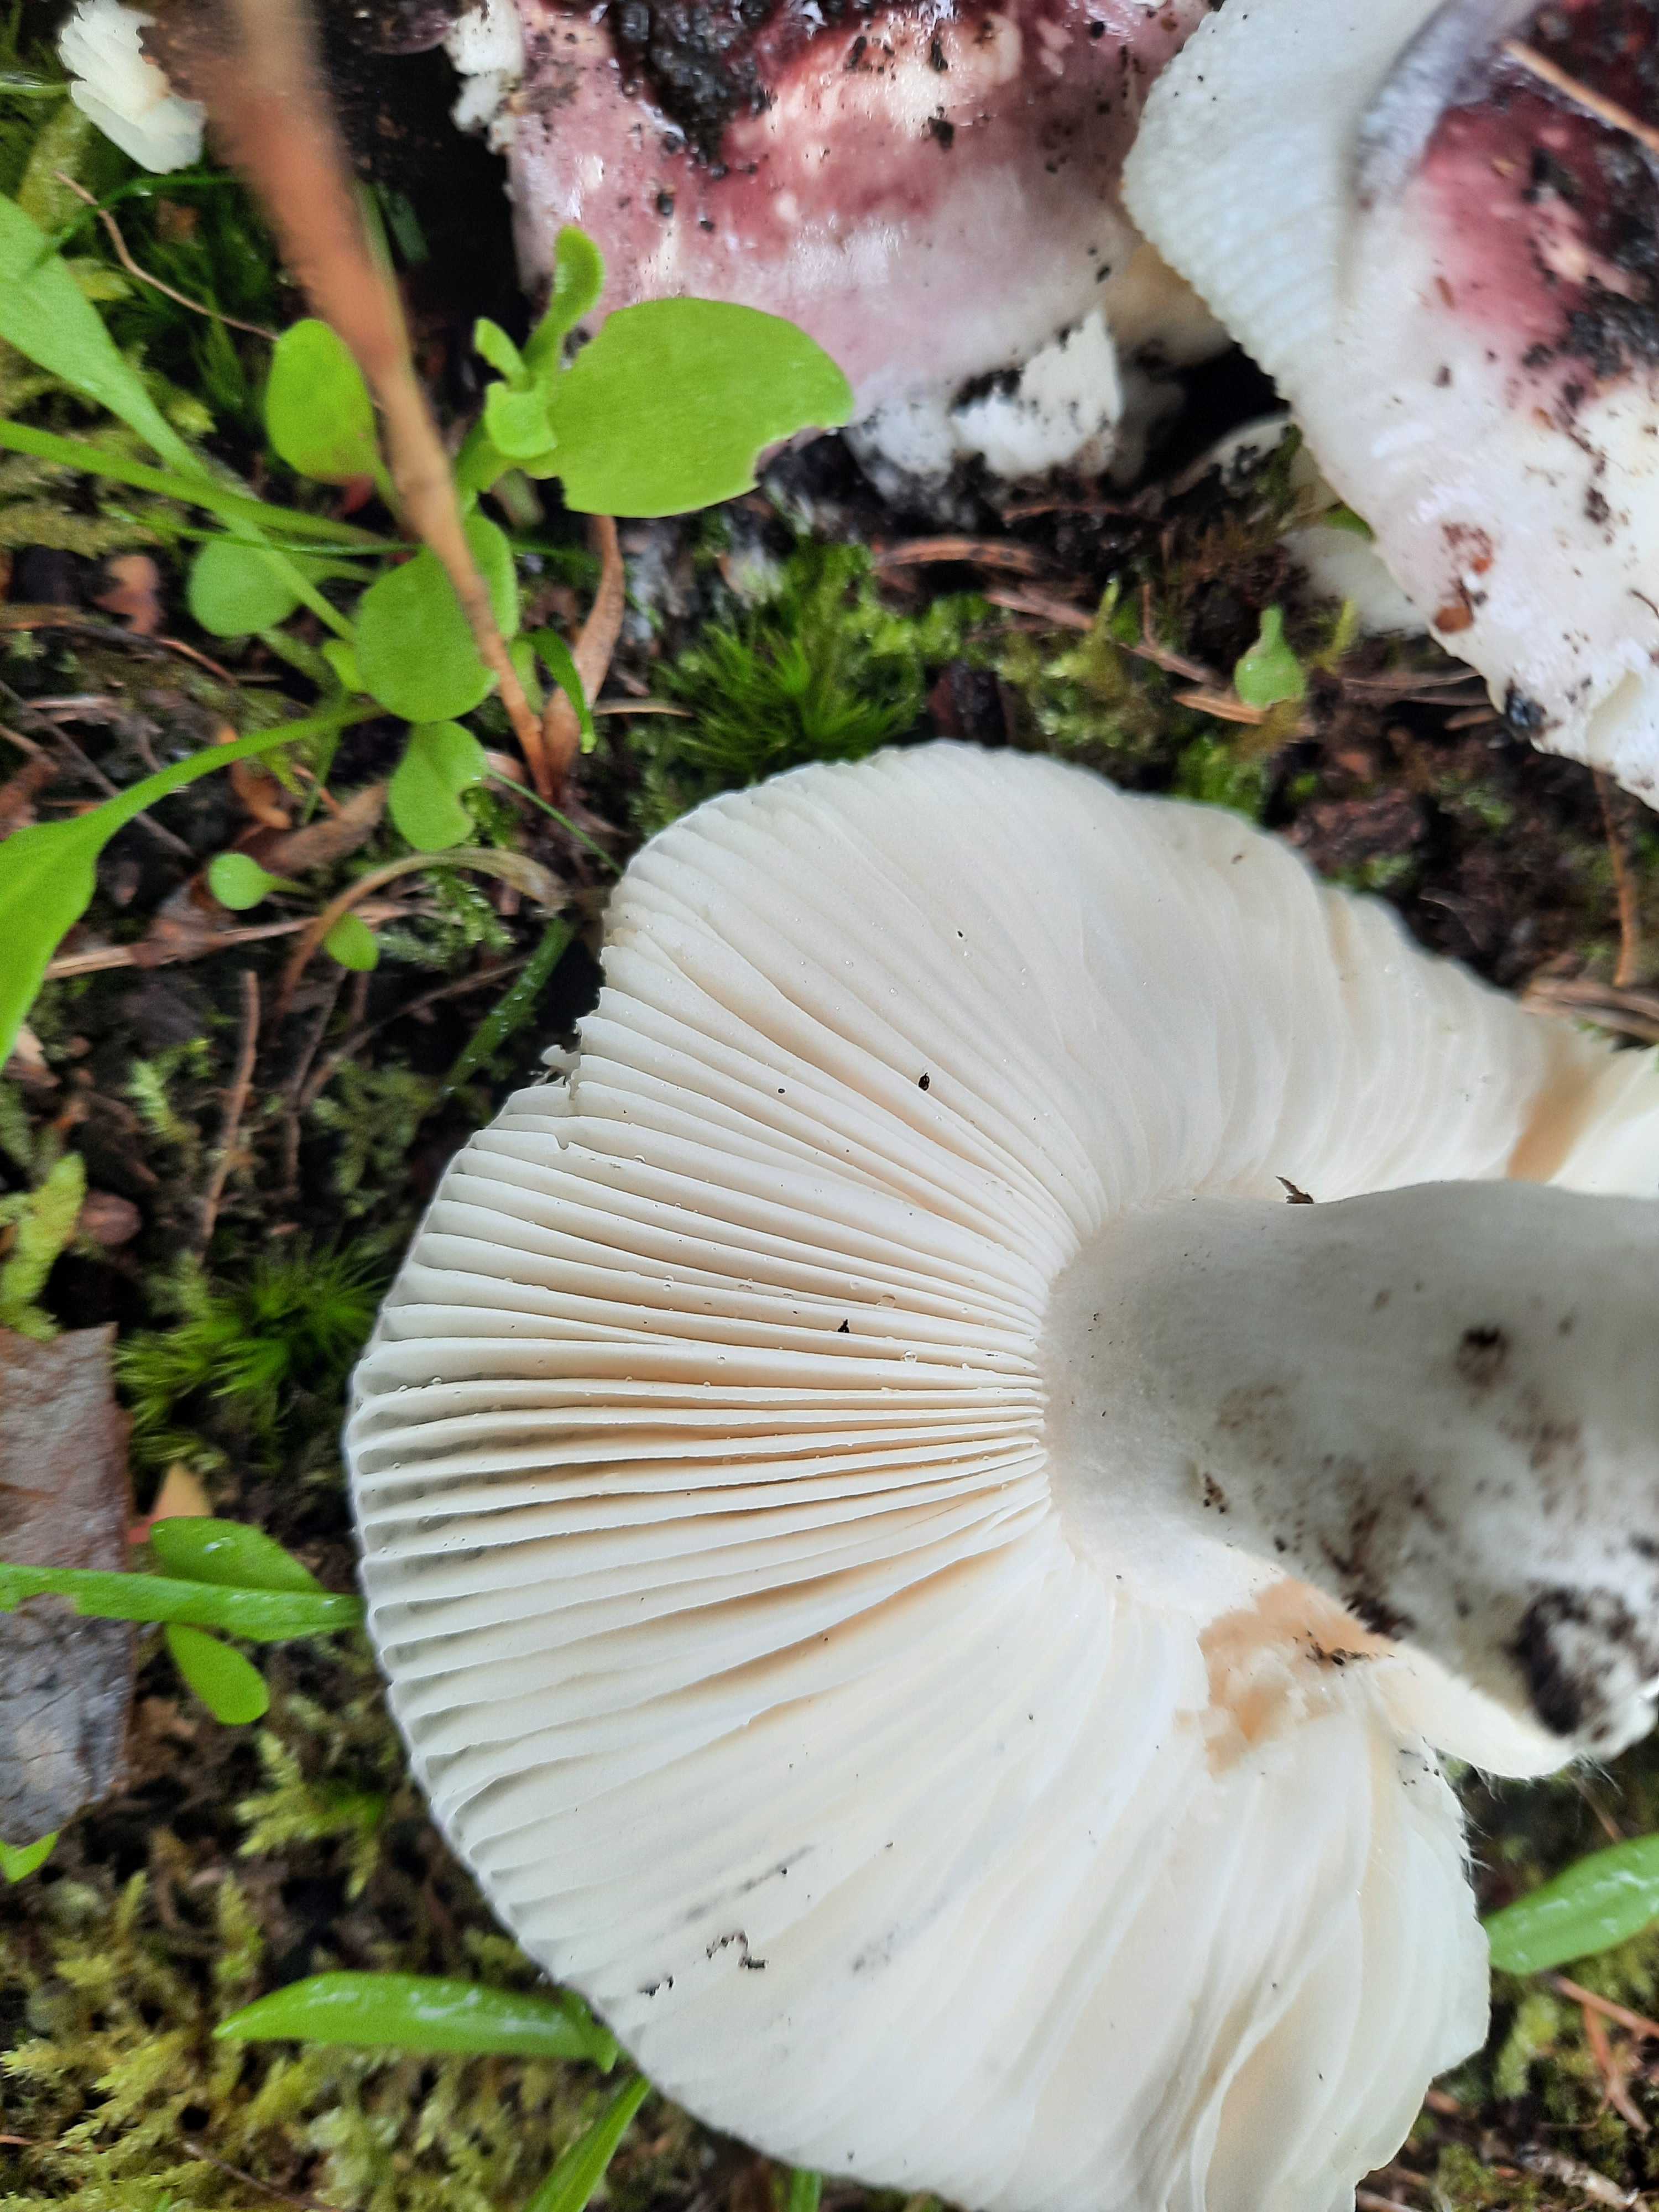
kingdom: Fungi
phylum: Basidiomycota
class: Agaricomycetes
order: Russulales
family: Russulaceae
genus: Russula
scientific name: Russula
